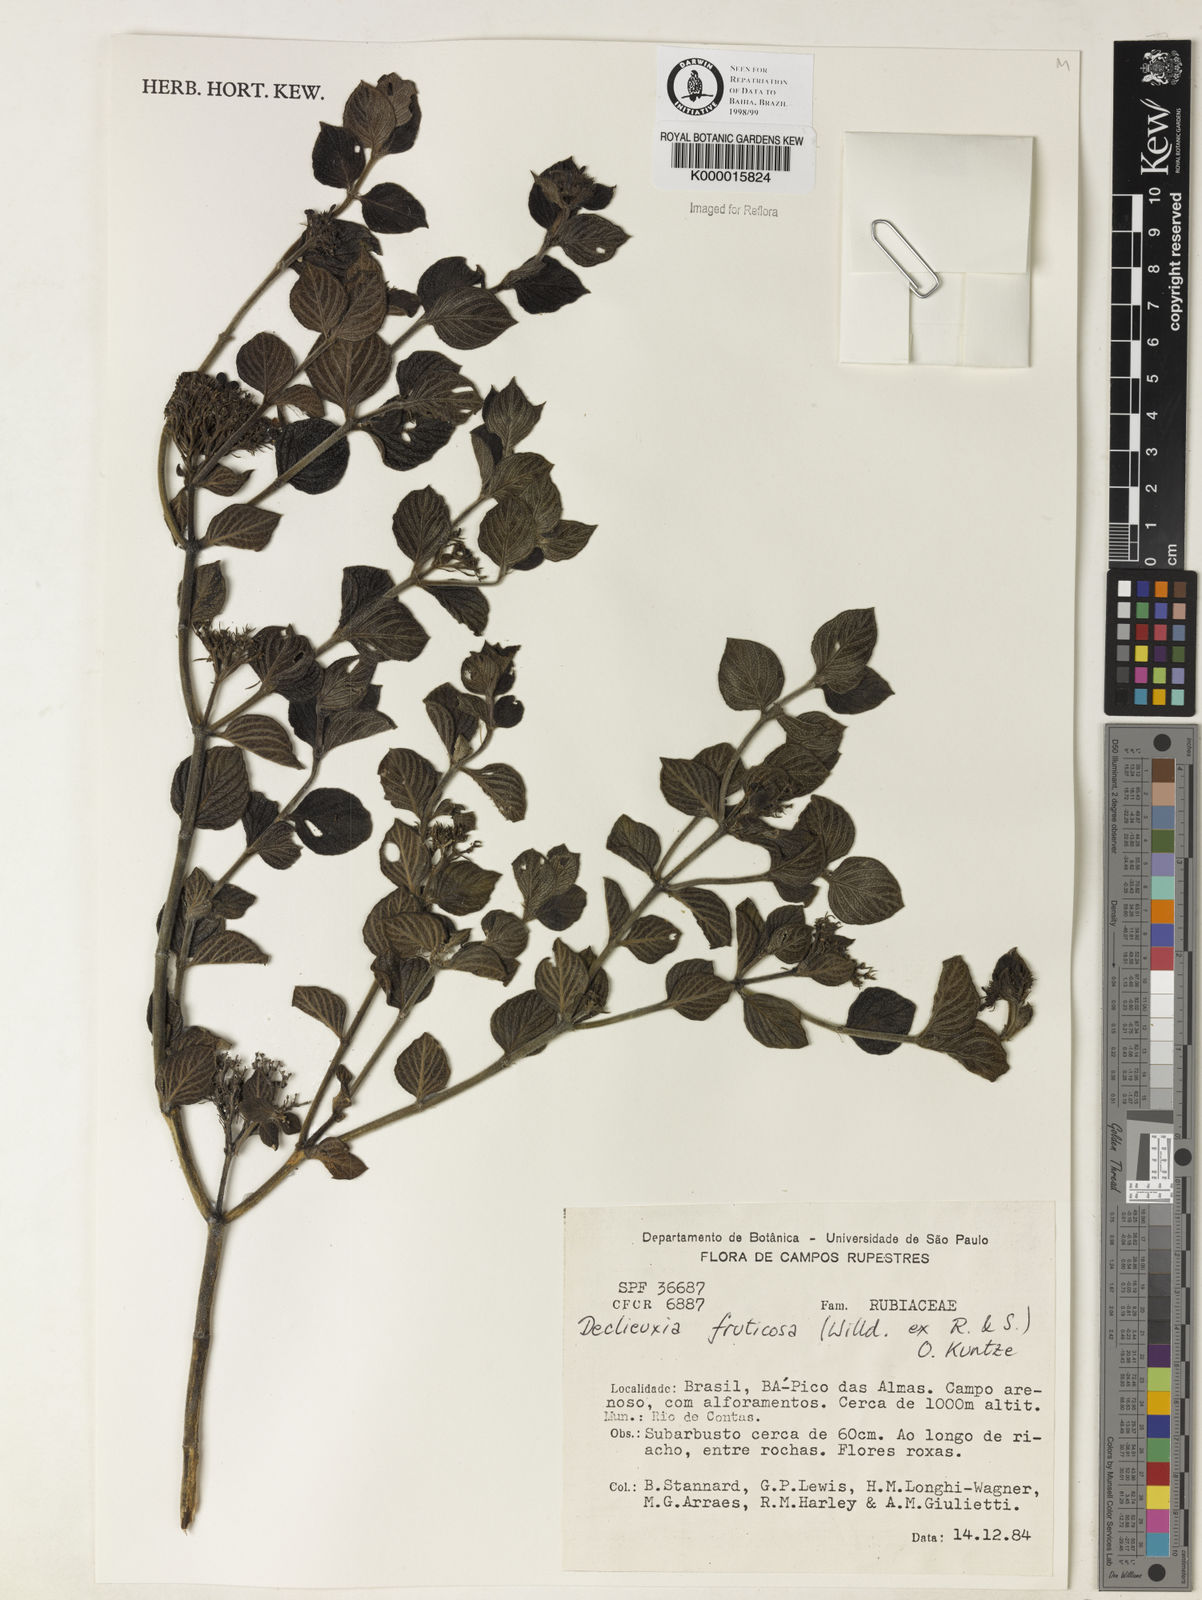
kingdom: Plantae
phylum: Tracheophyta
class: Magnoliopsida
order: Gentianales
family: Rubiaceae
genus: Declieuxia
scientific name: Declieuxia fruticosa
